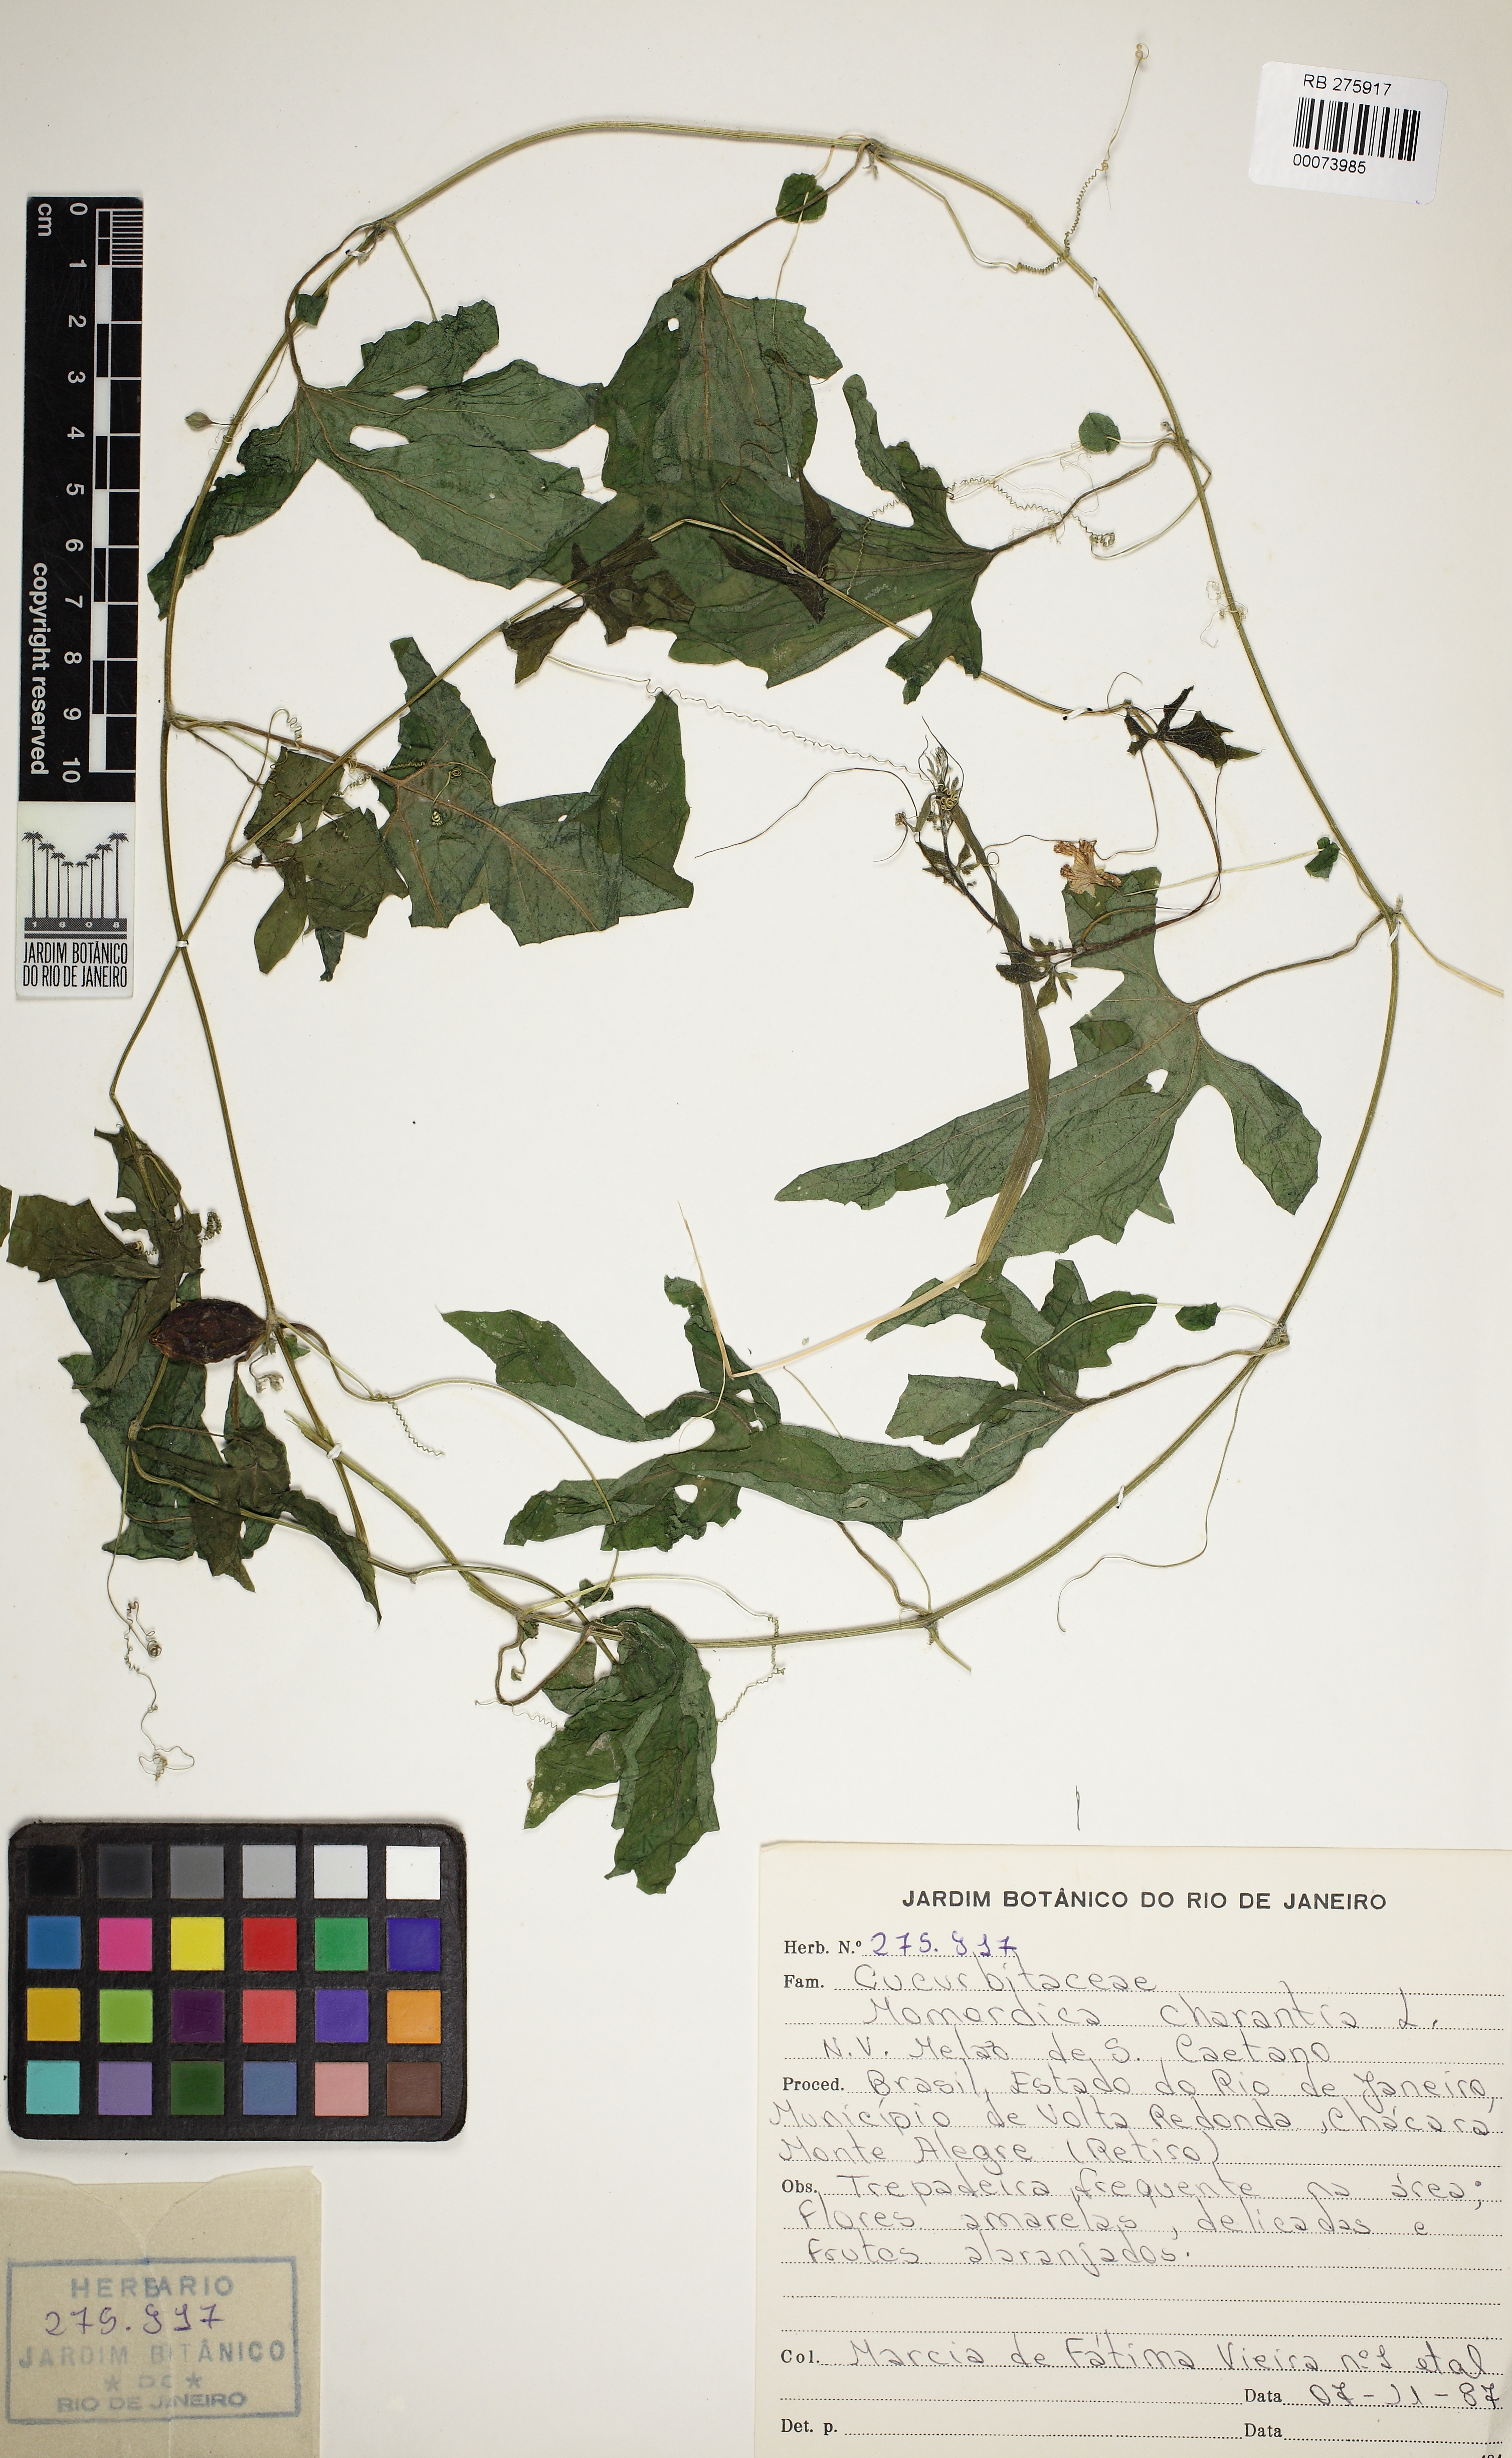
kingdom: Plantae
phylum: Tracheophyta
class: Magnoliopsida
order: Cucurbitales
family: Cucurbitaceae
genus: Momordica
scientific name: Momordica charantia
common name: Balsampear
